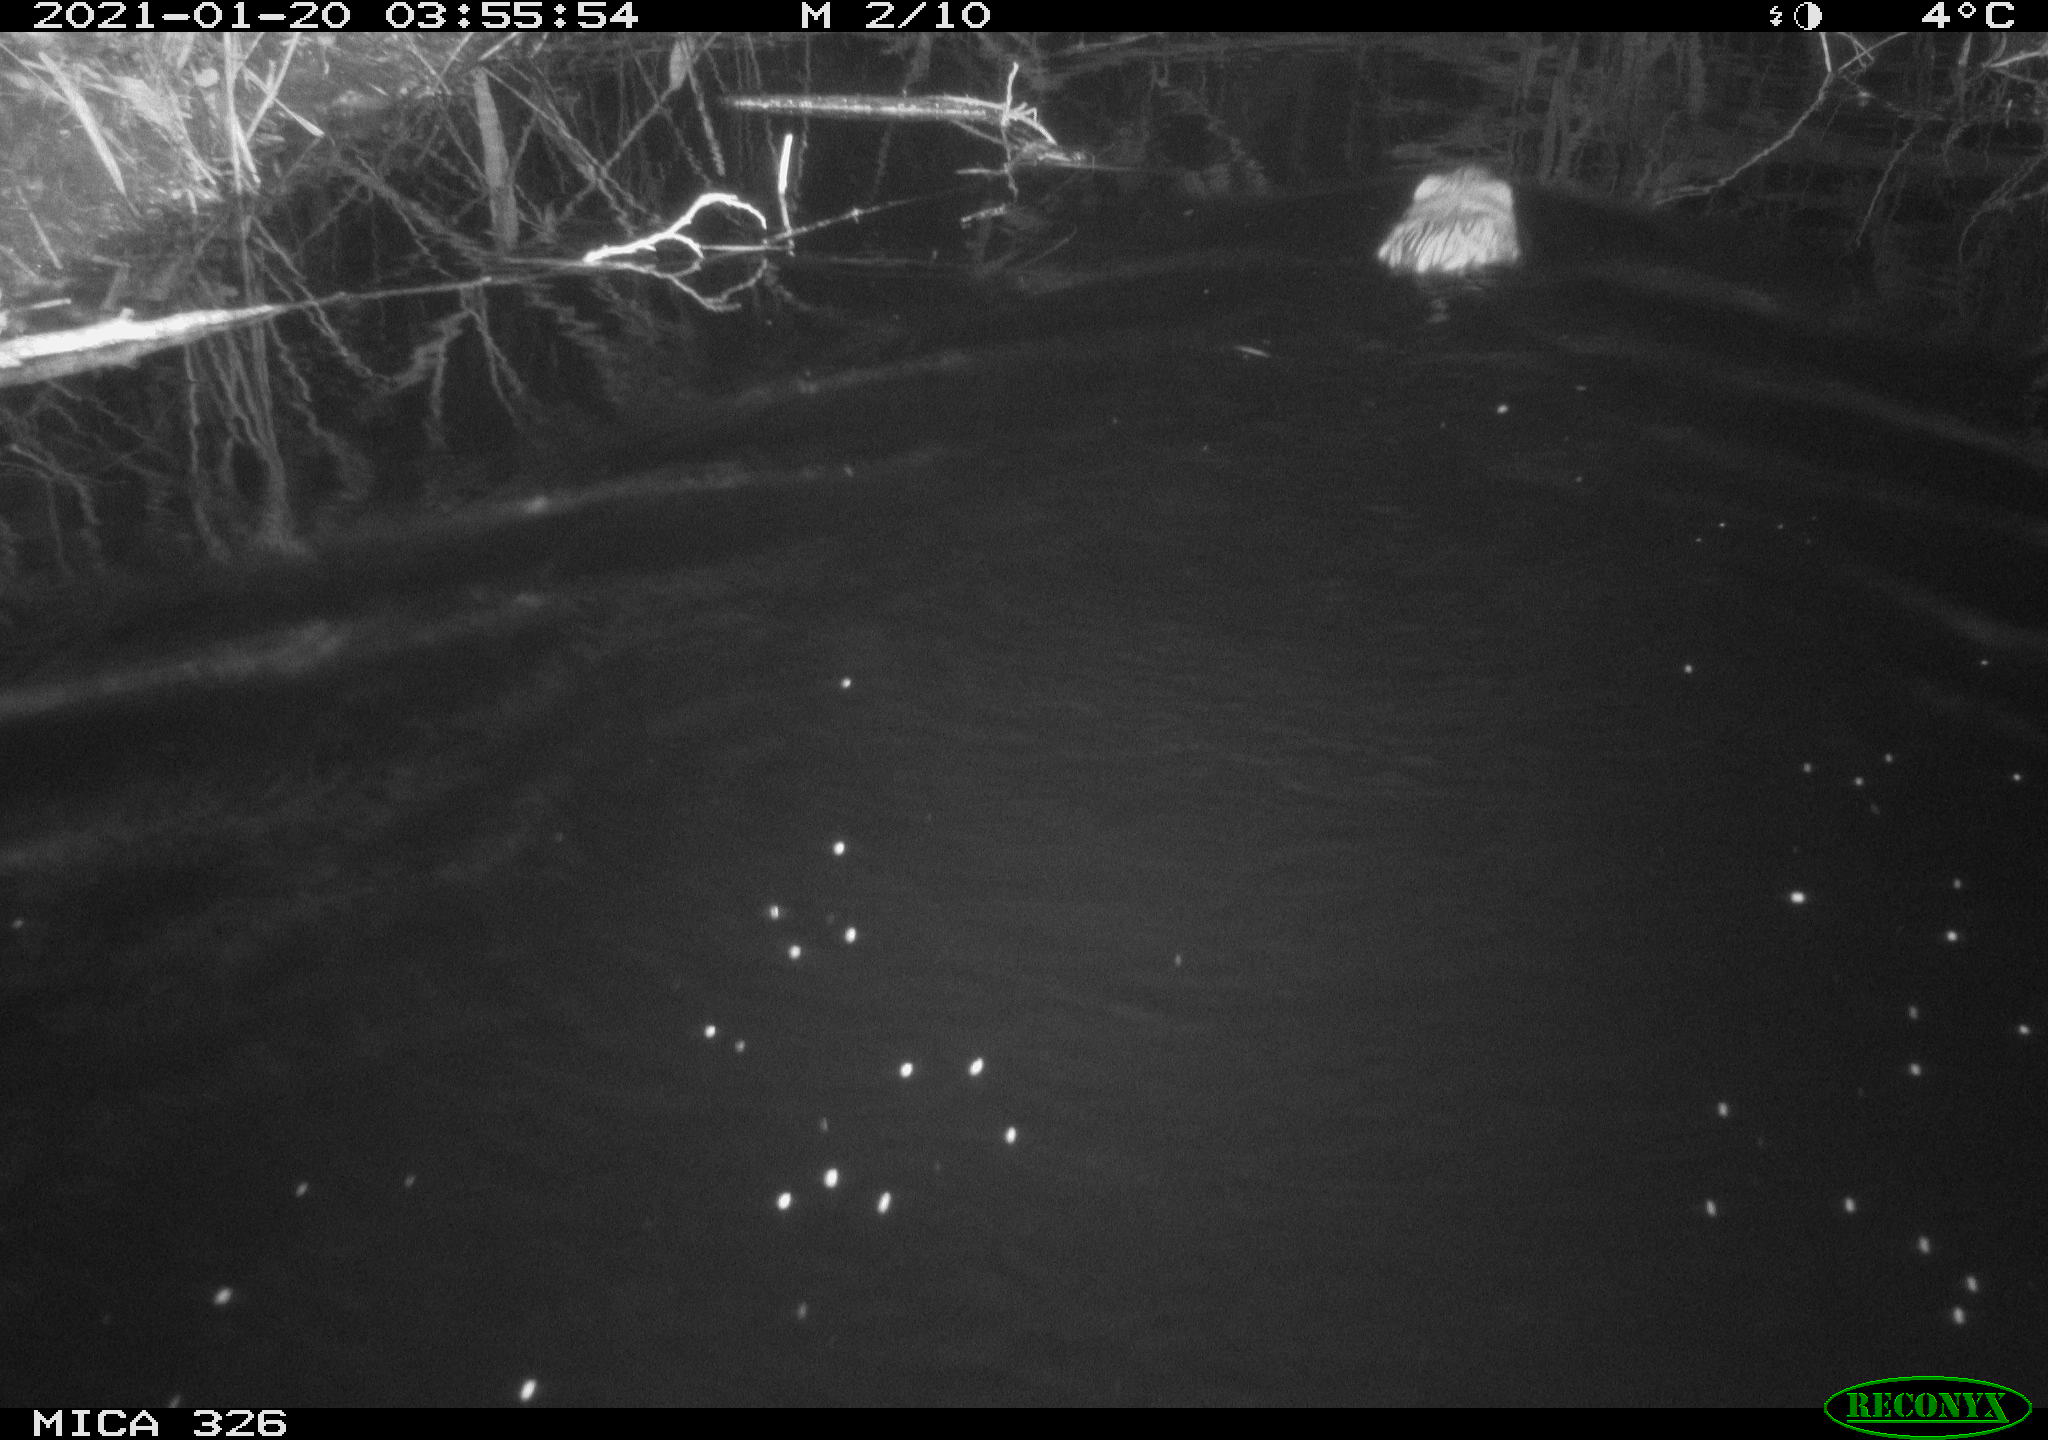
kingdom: Animalia
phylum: Chordata
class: Mammalia
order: Rodentia
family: Cricetidae
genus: Ondatra
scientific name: Ondatra zibethicus
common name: Muskrat
